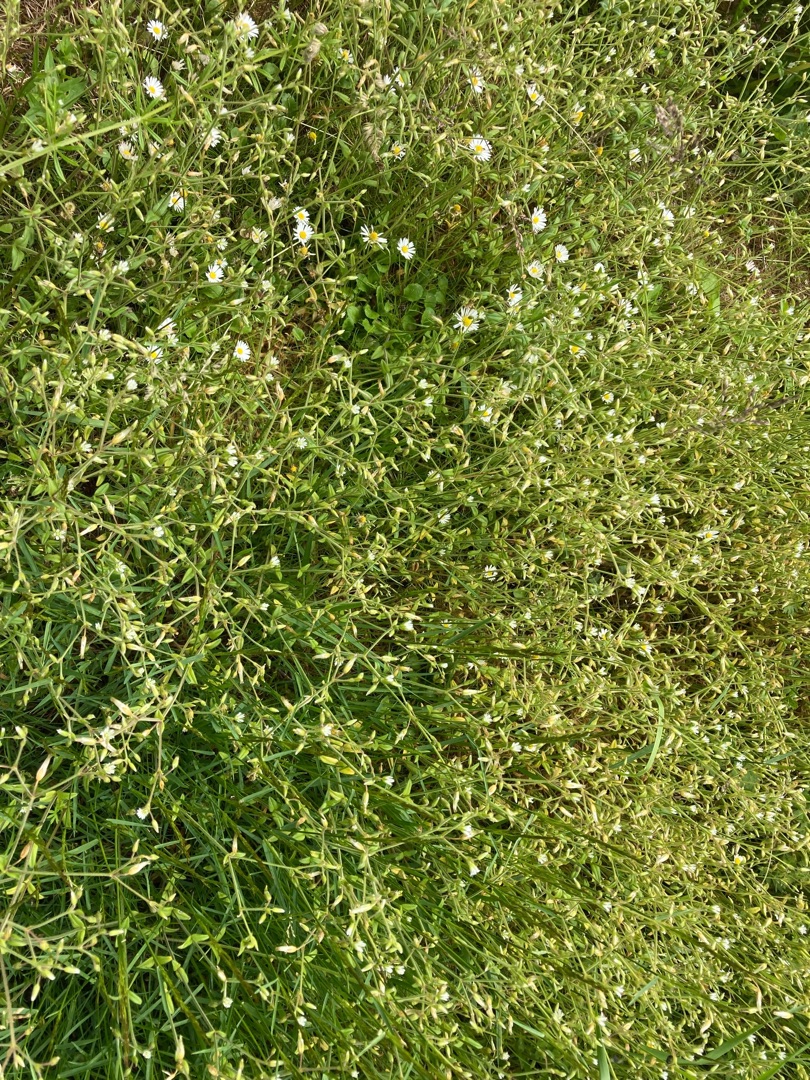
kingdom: Plantae
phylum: Tracheophyta
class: Magnoliopsida
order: Caryophyllales
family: Caryophyllaceae
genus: Cerastium
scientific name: Cerastium semidecandrum
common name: Femhannet hønsetarm
